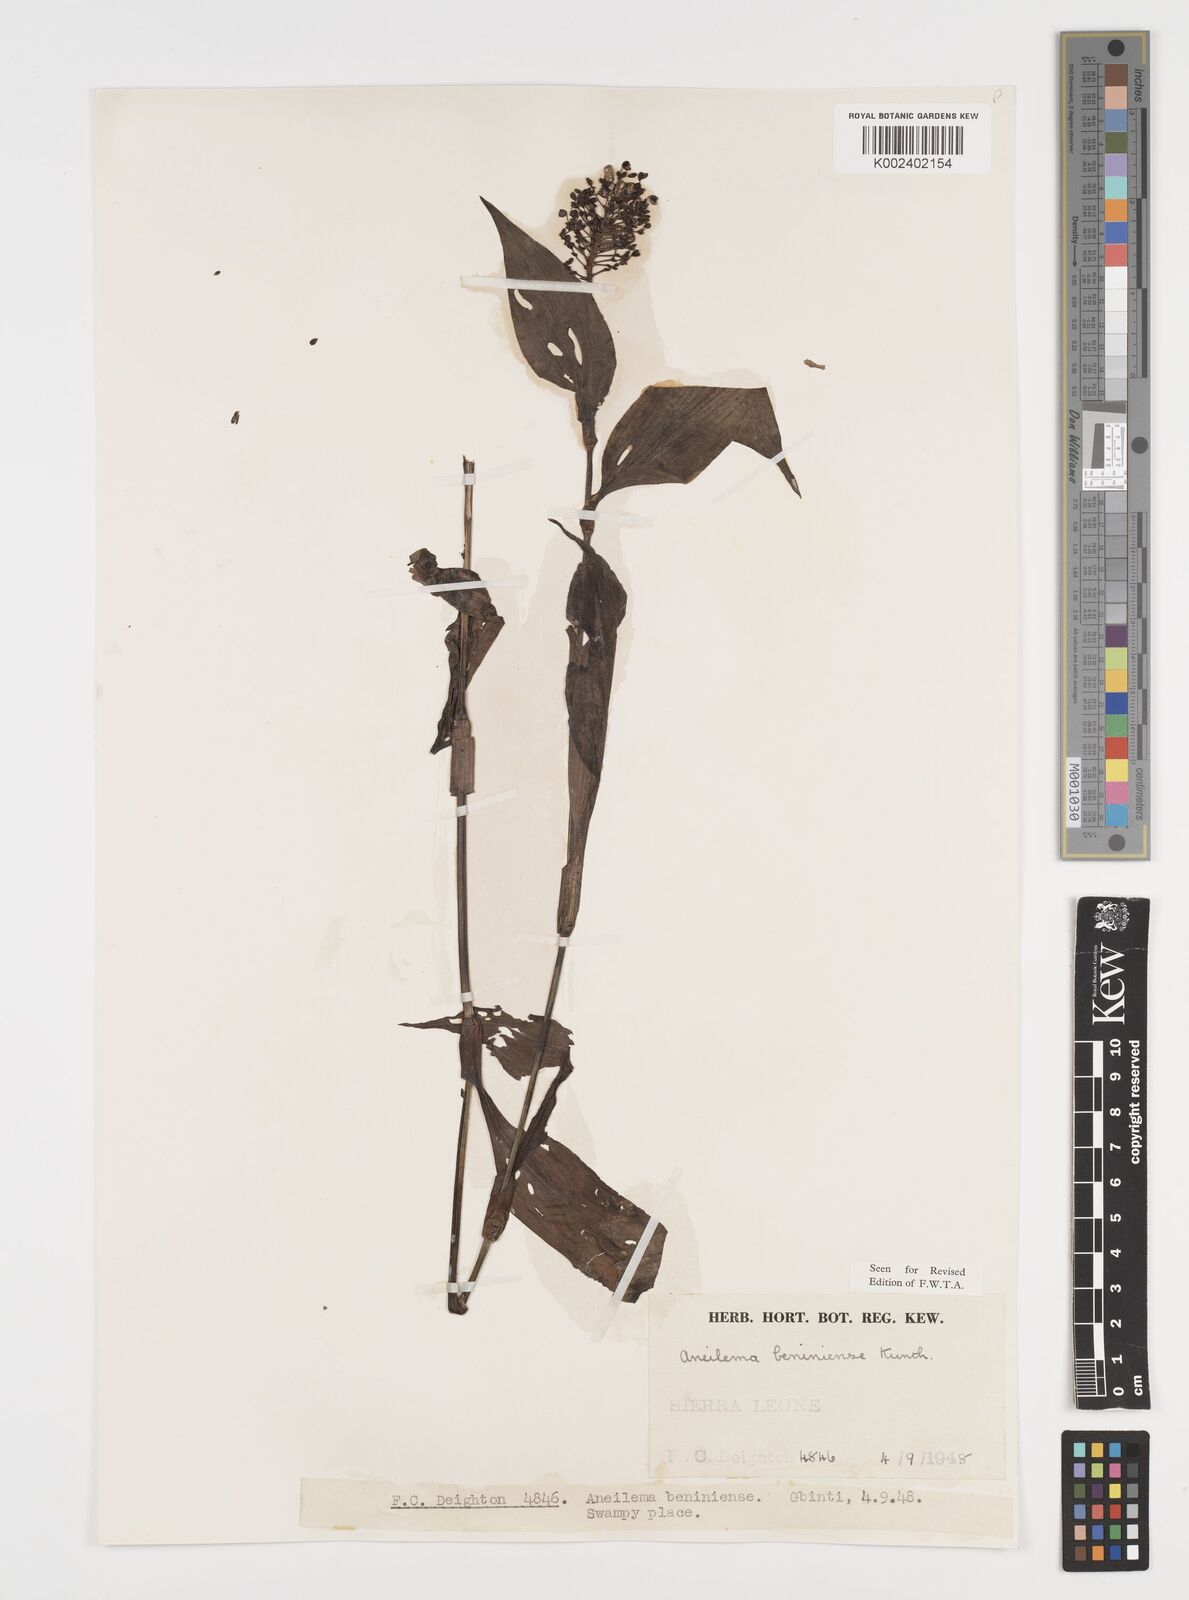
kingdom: Plantae
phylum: Tracheophyta
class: Liliopsida
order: Commelinales
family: Commelinaceae
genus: Aneilema
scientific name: Aneilema beniniense
